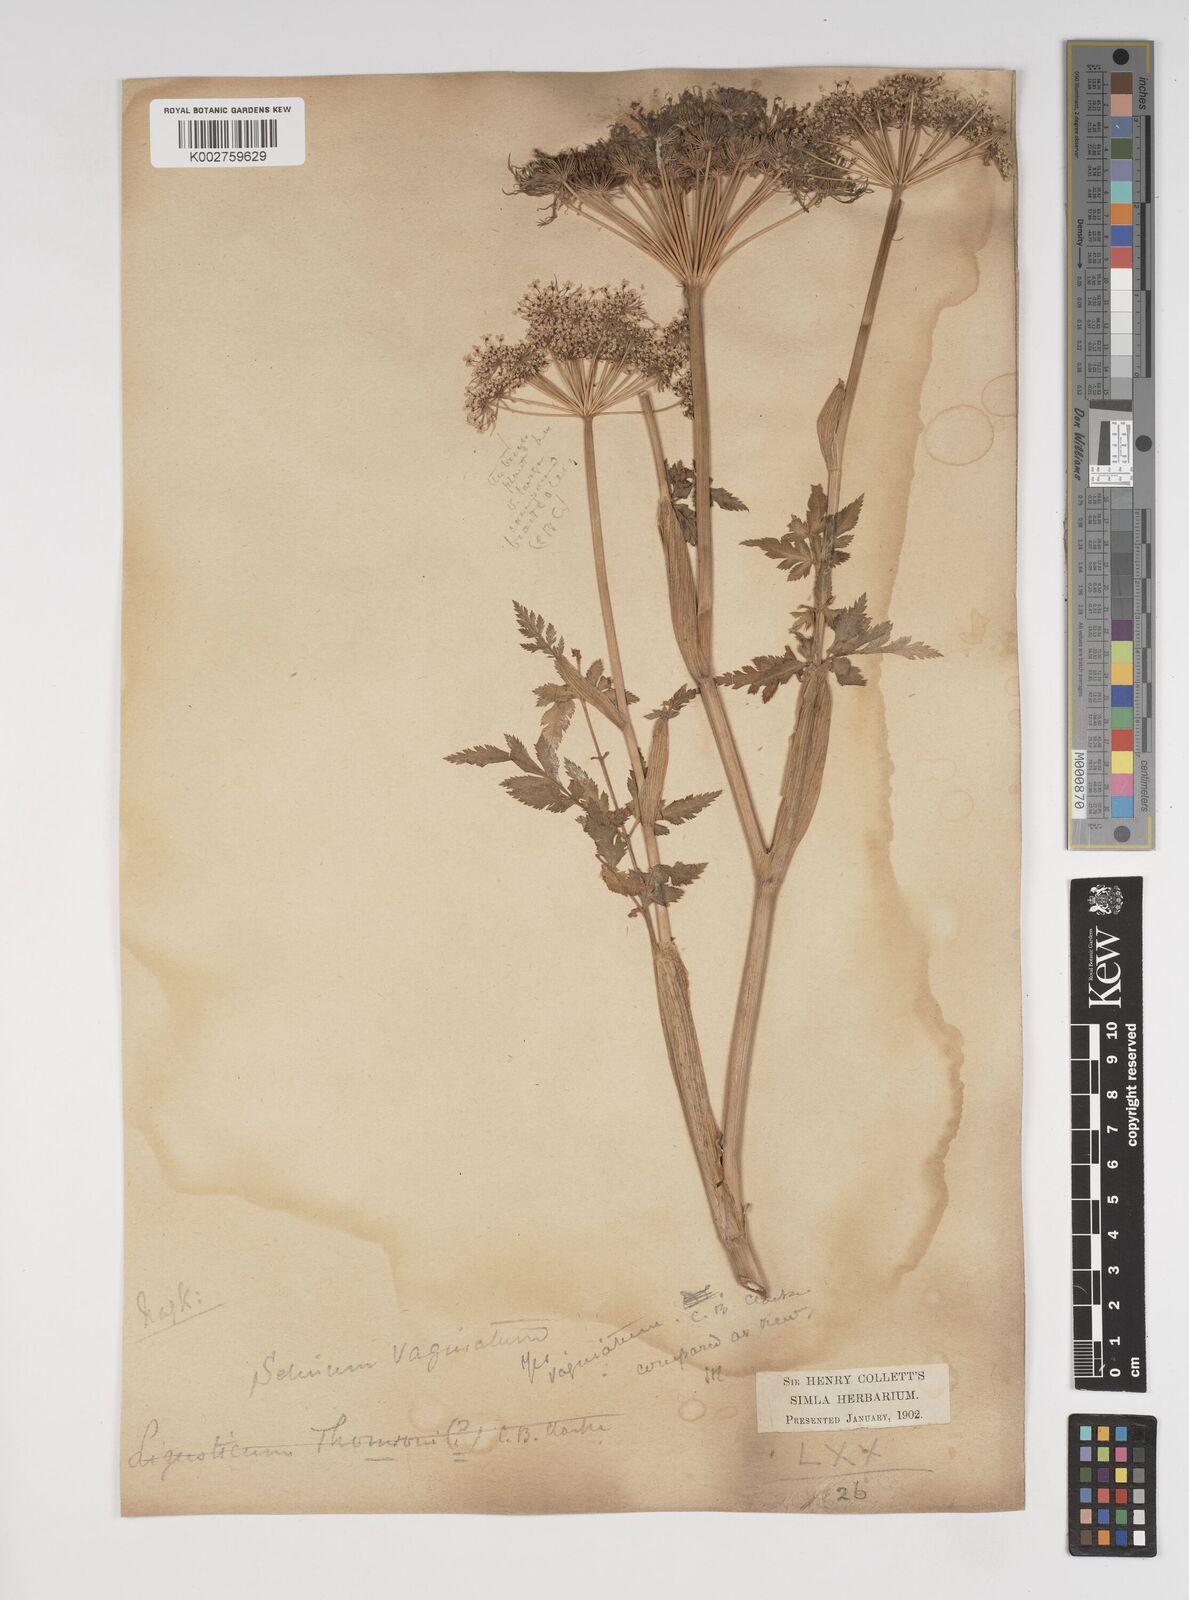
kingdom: Plantae
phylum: Tracheophyta
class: Magnoliopsida
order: Apiales
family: Apiaceae
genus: Selinum
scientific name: Selinum vaginatum
